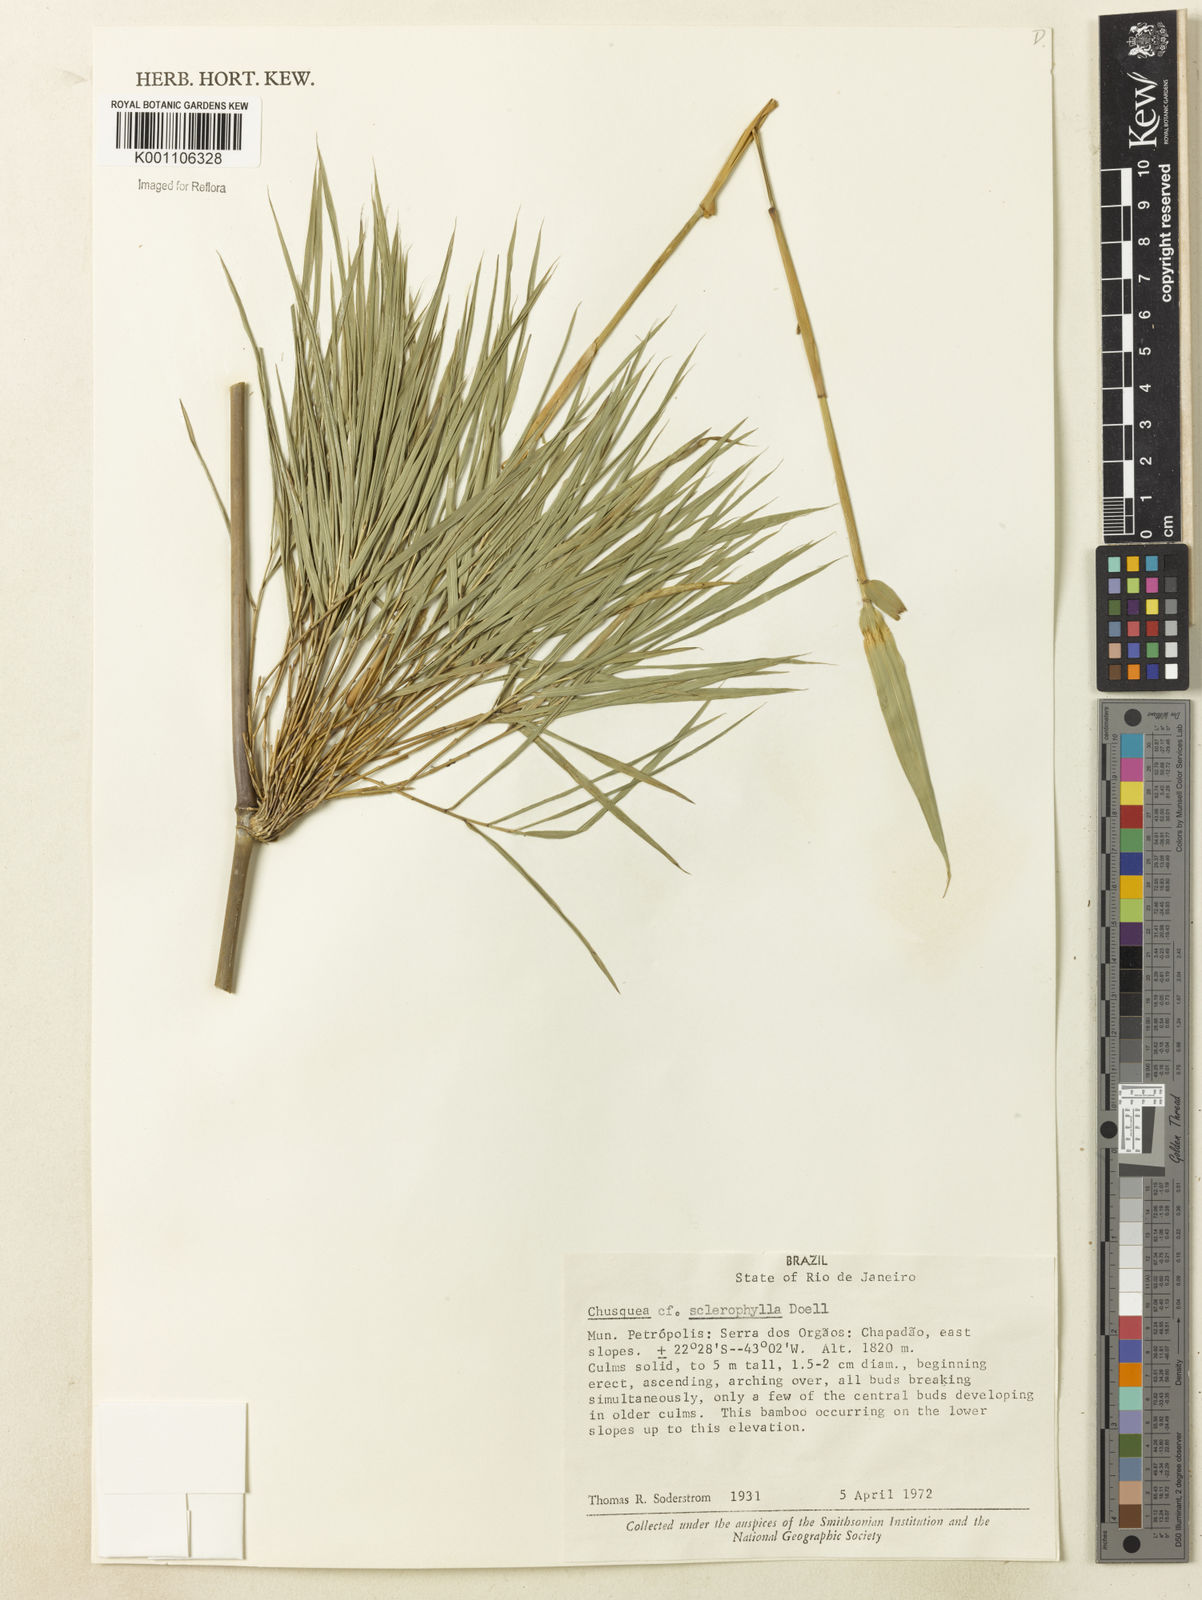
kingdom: Plantae
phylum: Tracheophyta
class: Liliopsida
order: Poales
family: Poaceae
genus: Chusquea
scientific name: Chusquea
